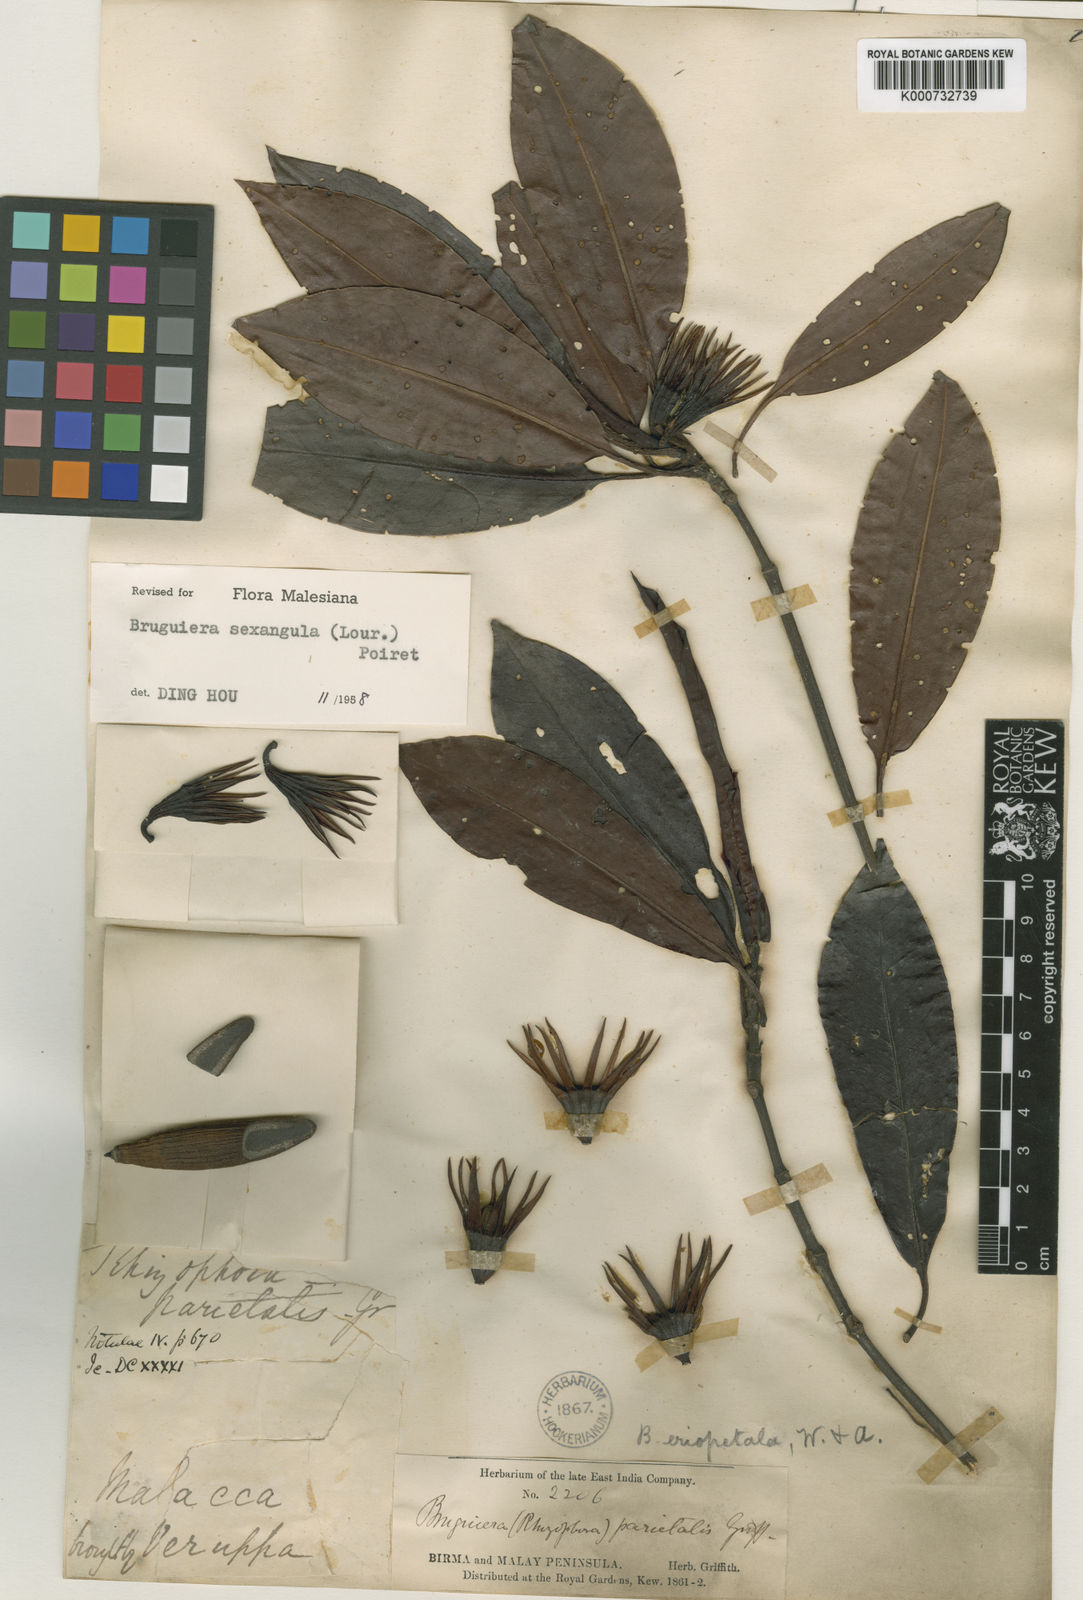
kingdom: Plantae
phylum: Tracheophyta
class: Magnoliopsida
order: Malpighiales
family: Rhizophoraceae
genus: Bruguiera
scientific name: Bruguiera sexangula
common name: Oriental mangrove
